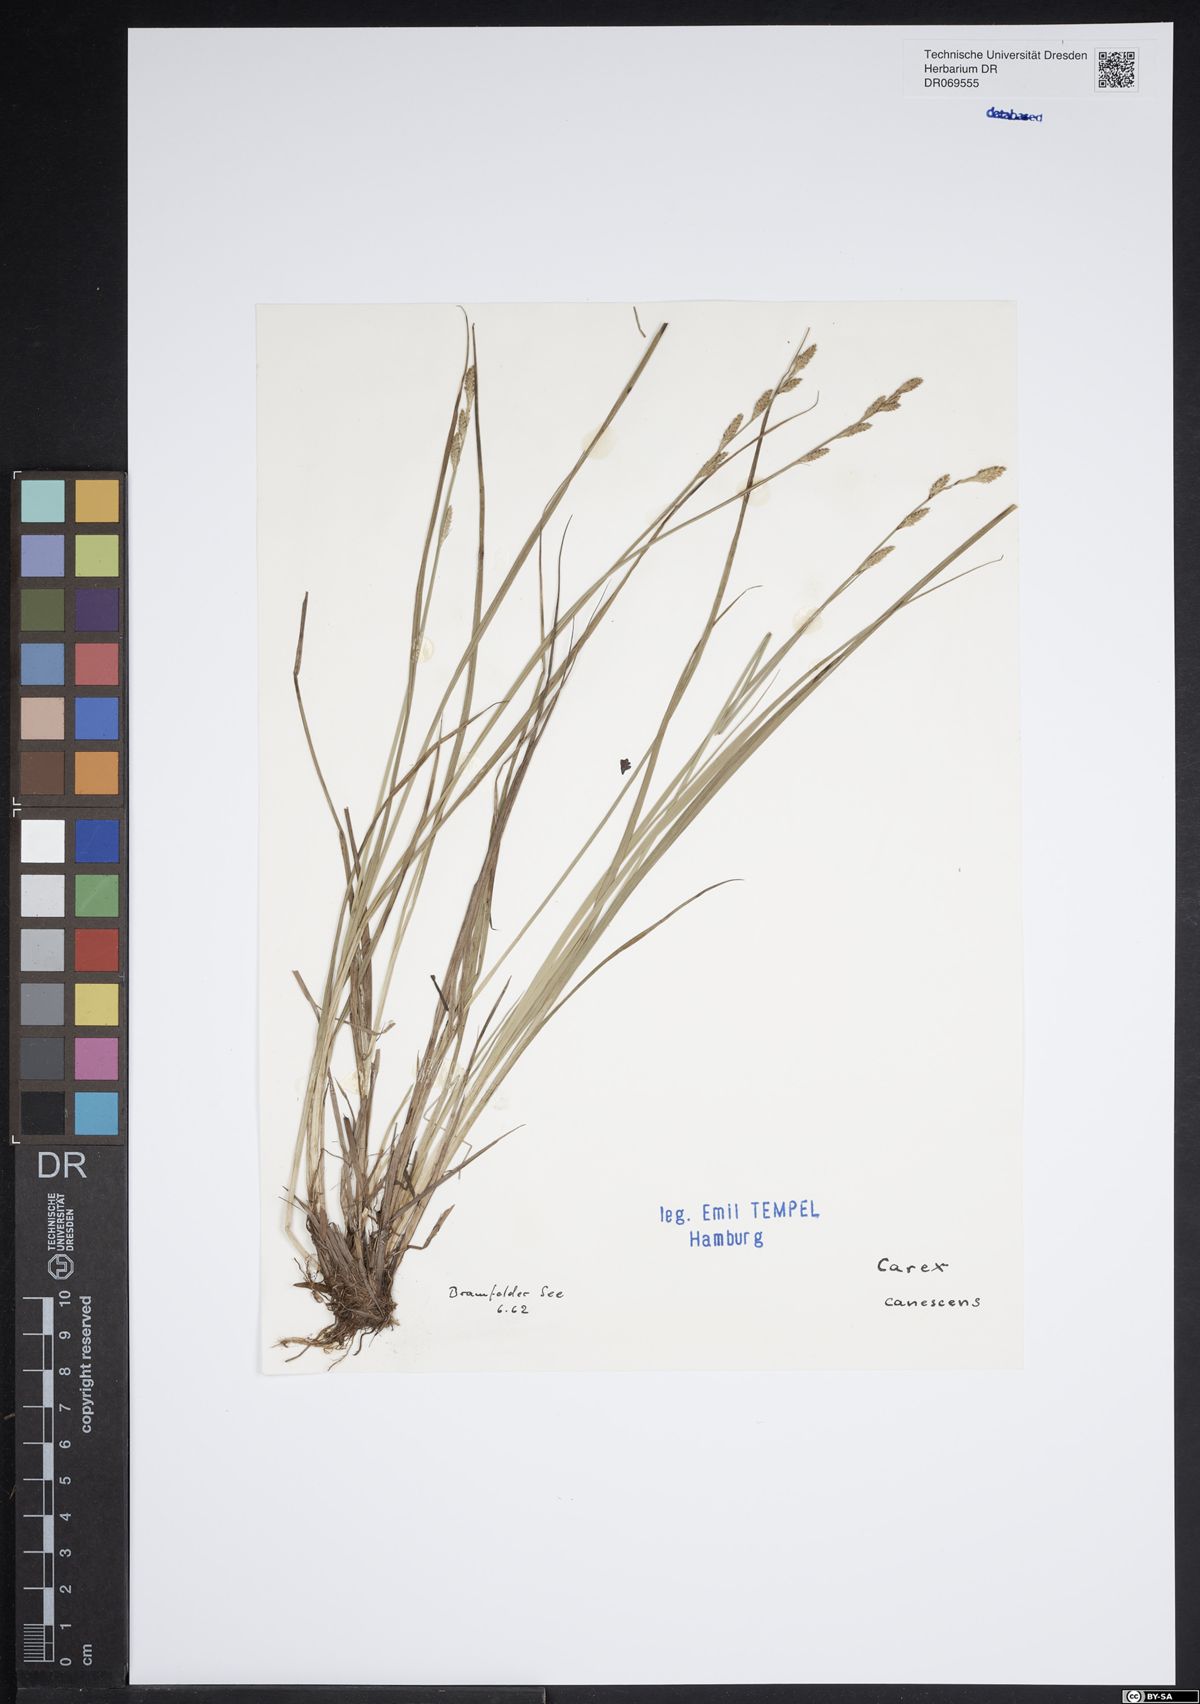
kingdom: Plantae
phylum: Tracheophyta
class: Liliopsida
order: Poales
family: Cyperaceae
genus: Carex
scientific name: Carex canescens
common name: White sedge
